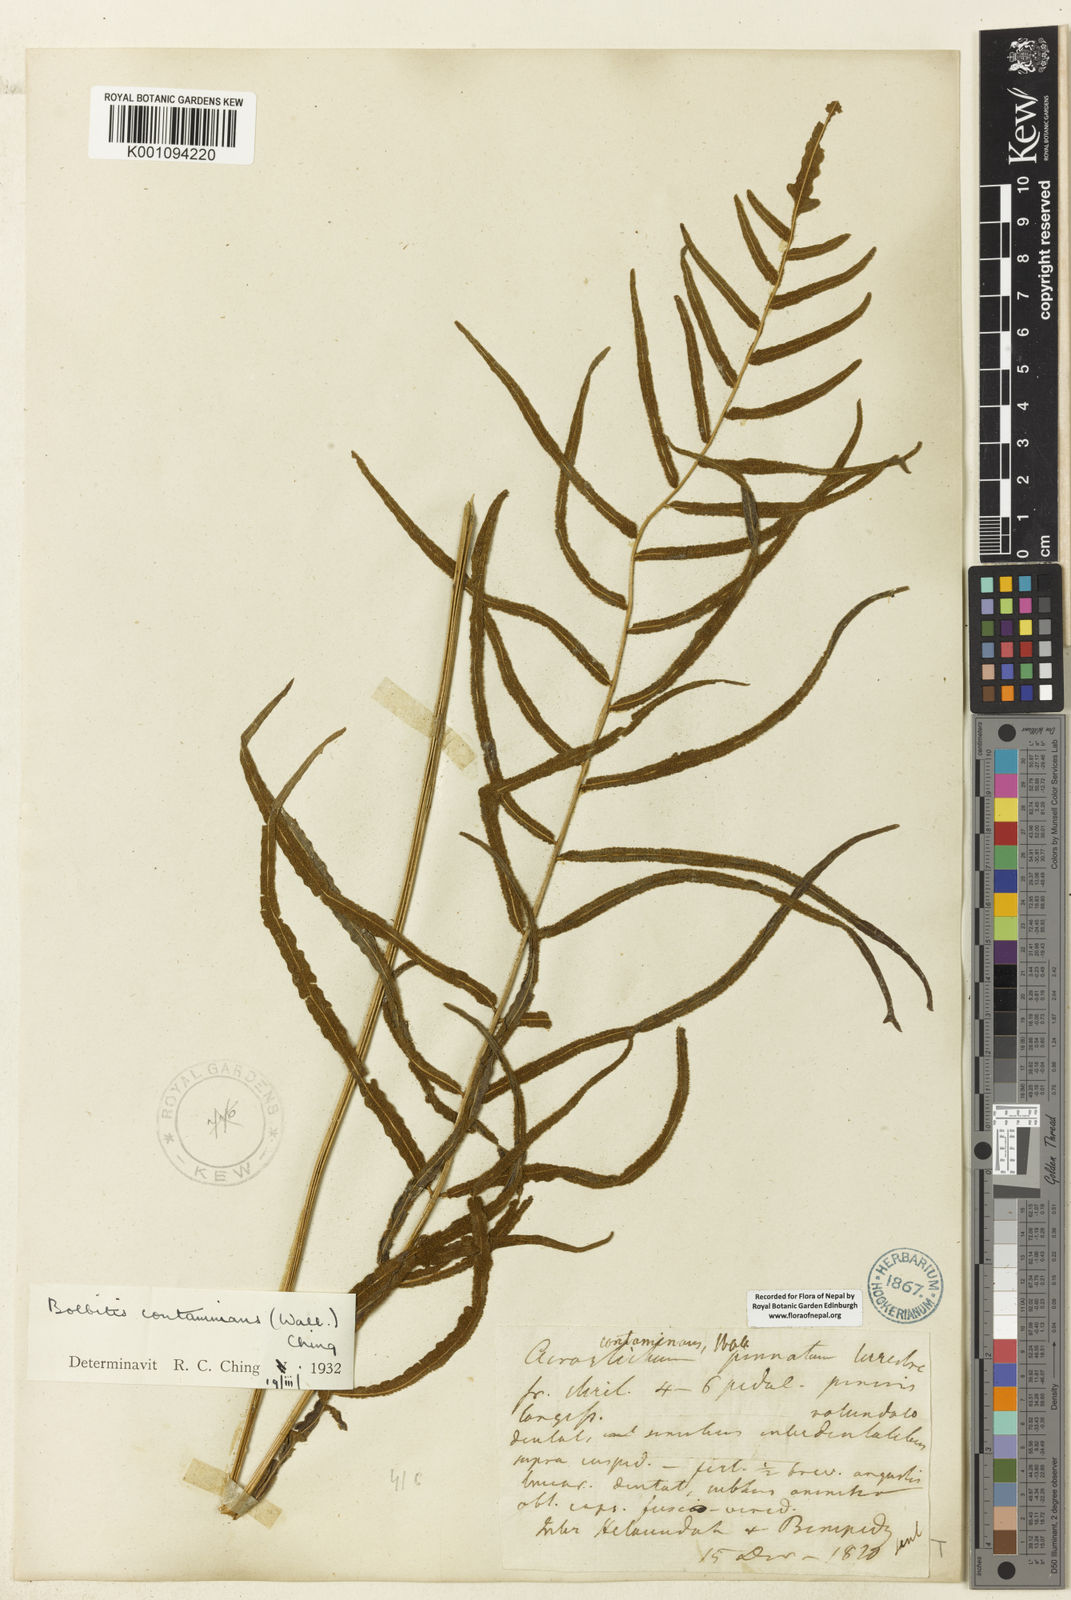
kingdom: Plantae
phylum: Tracheophyta
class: Polypodiopsida
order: Polypodiales
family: Dryopteridaceae
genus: Bolbitis
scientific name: Bolbitis semicordata
